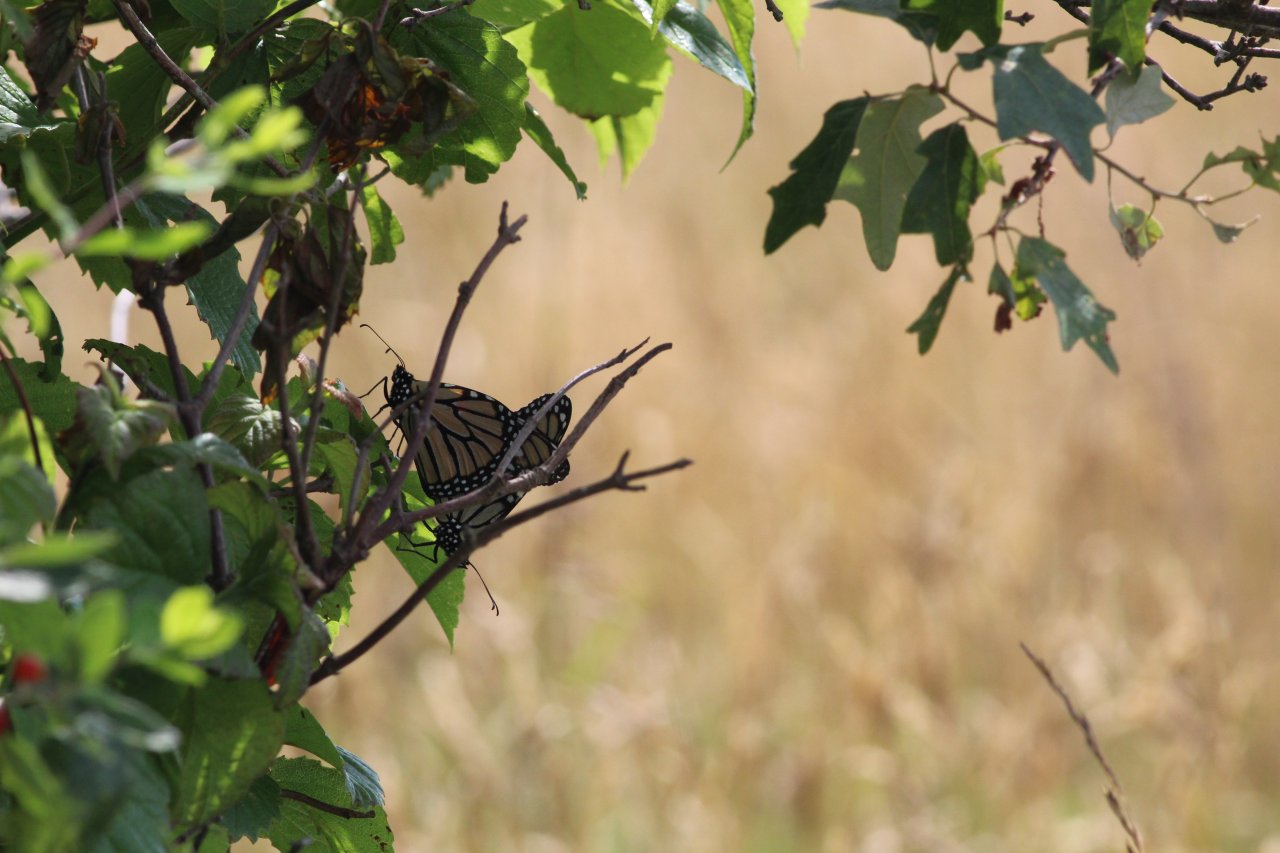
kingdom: Animalia
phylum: Arthropoda
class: Insecta
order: Lepidoptera
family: Nymphalidae
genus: Danaus
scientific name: Danaus plexippus
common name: Monarch
